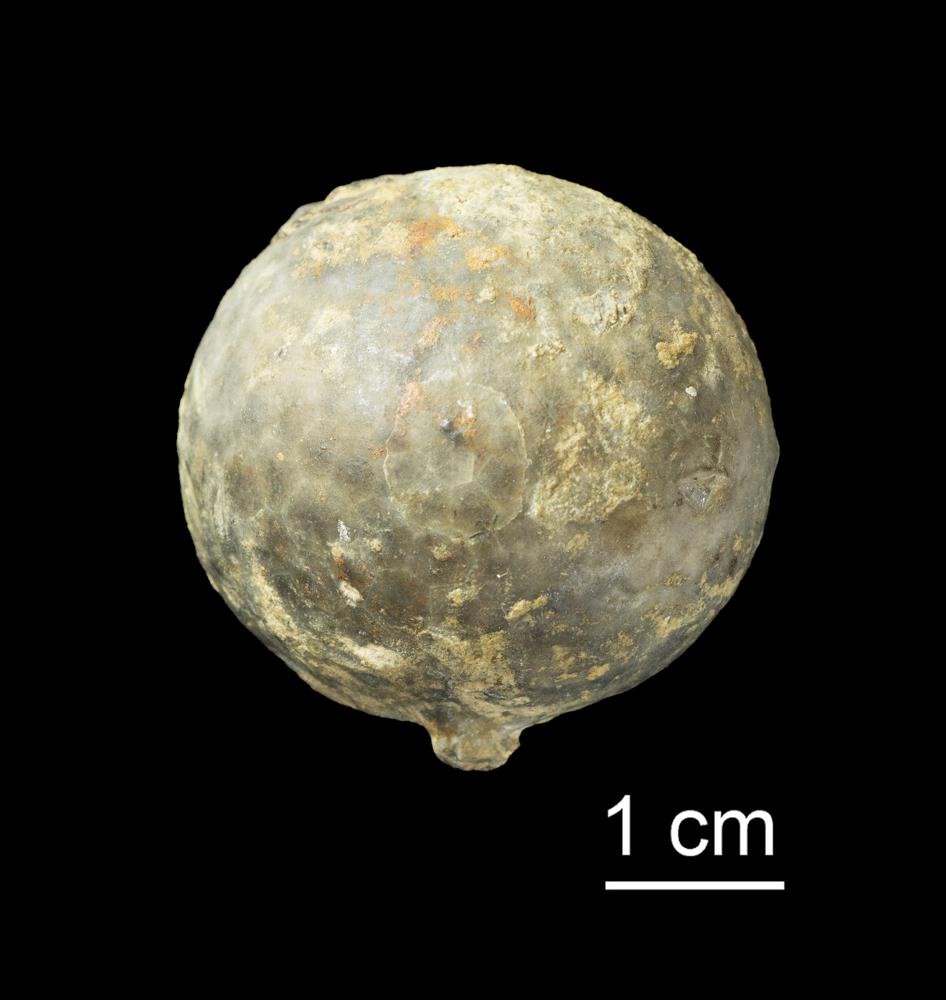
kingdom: Animalia
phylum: Echinodermata
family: Echinosphaeritidae
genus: Echinosphaerites
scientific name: Echinosphaerites Echinus aurantium
